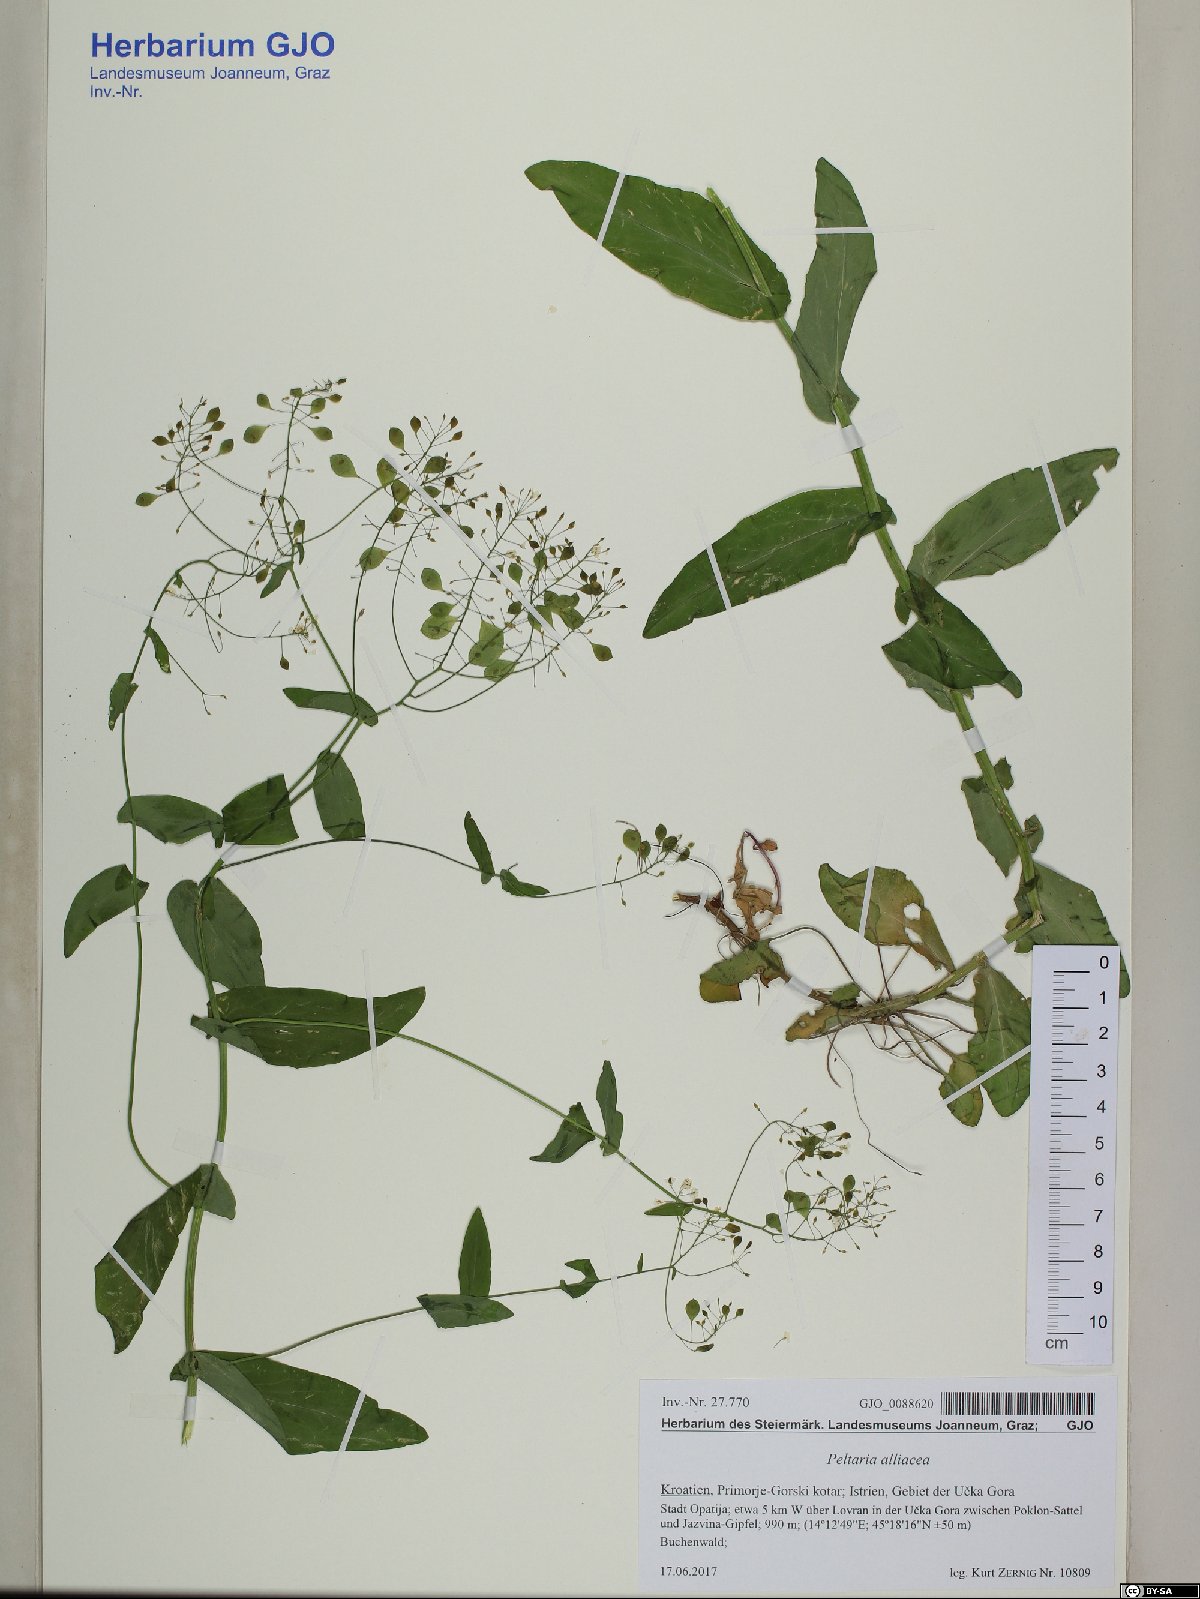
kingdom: Plantae
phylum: Tracheophyta
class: Magnoliopsida
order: Brassicales
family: Brassicaceae
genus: Peltaria
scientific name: Peltaria alliacea
